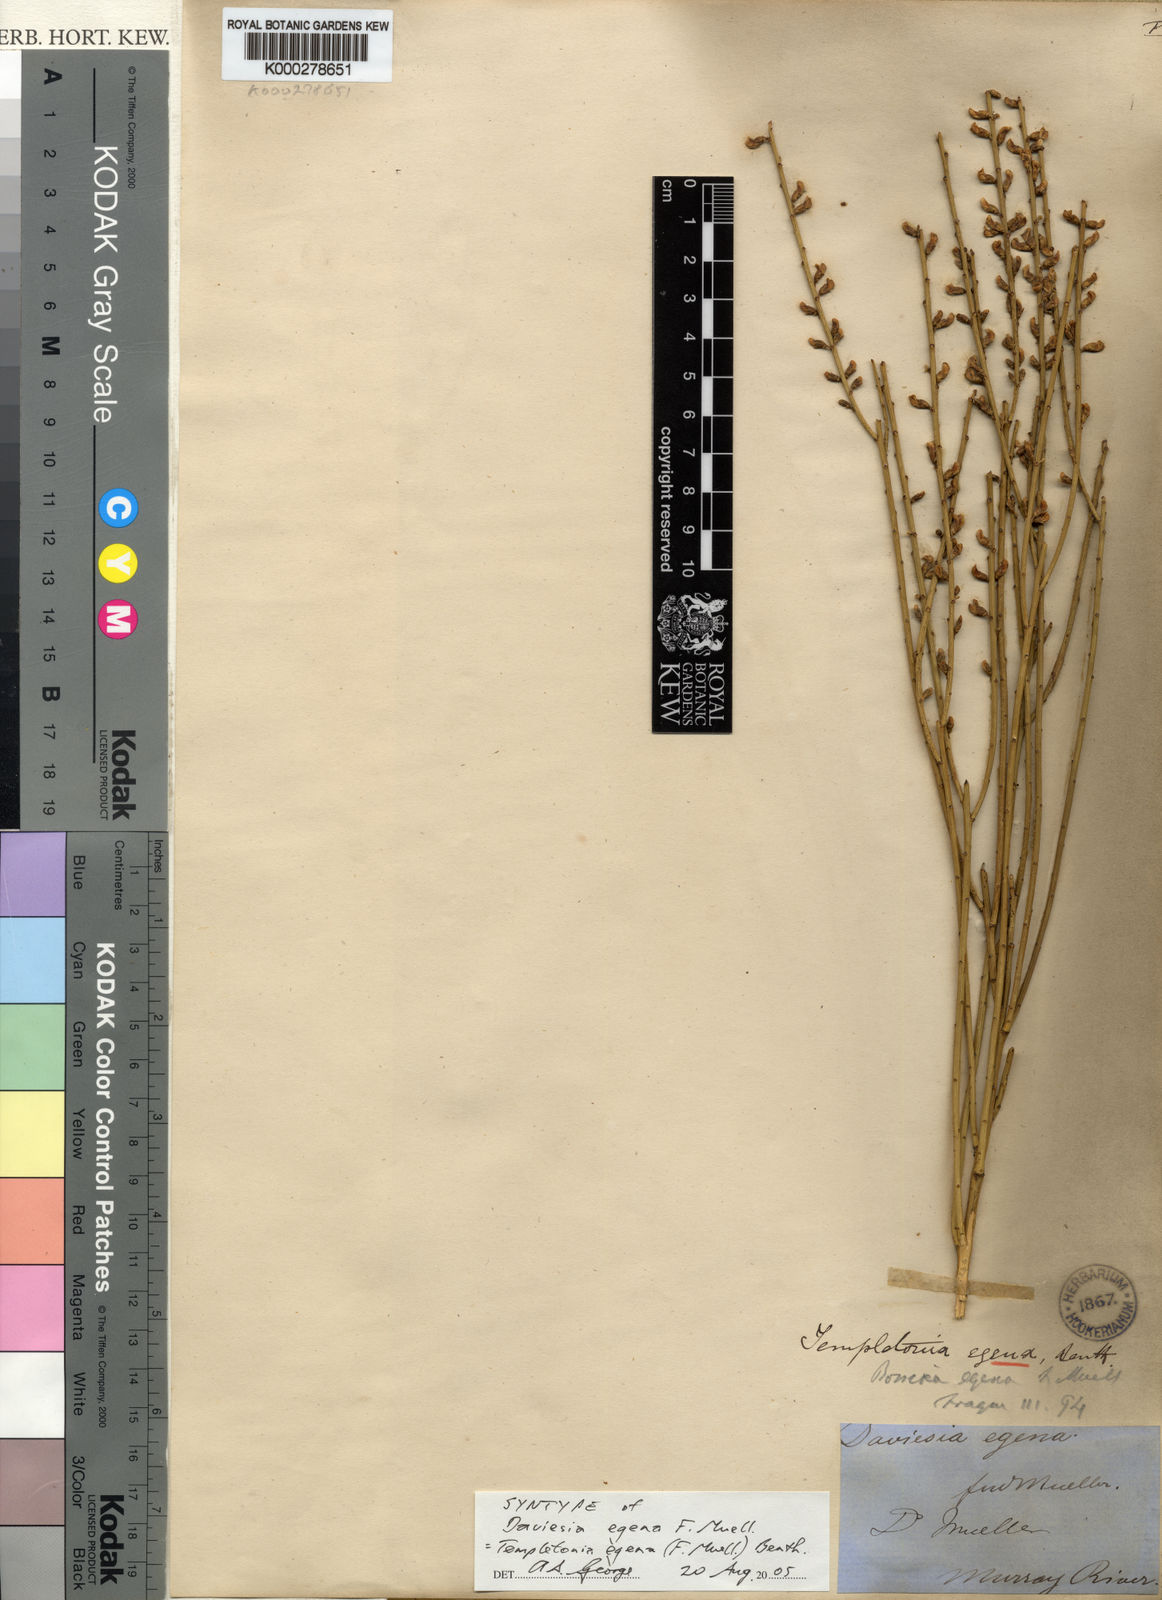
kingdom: Plantae
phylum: Tracheophyta
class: Magnoliopsida
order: Fabales
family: Fabaceae
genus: Templetonia
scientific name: Templetonia egena
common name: Desert broombush
